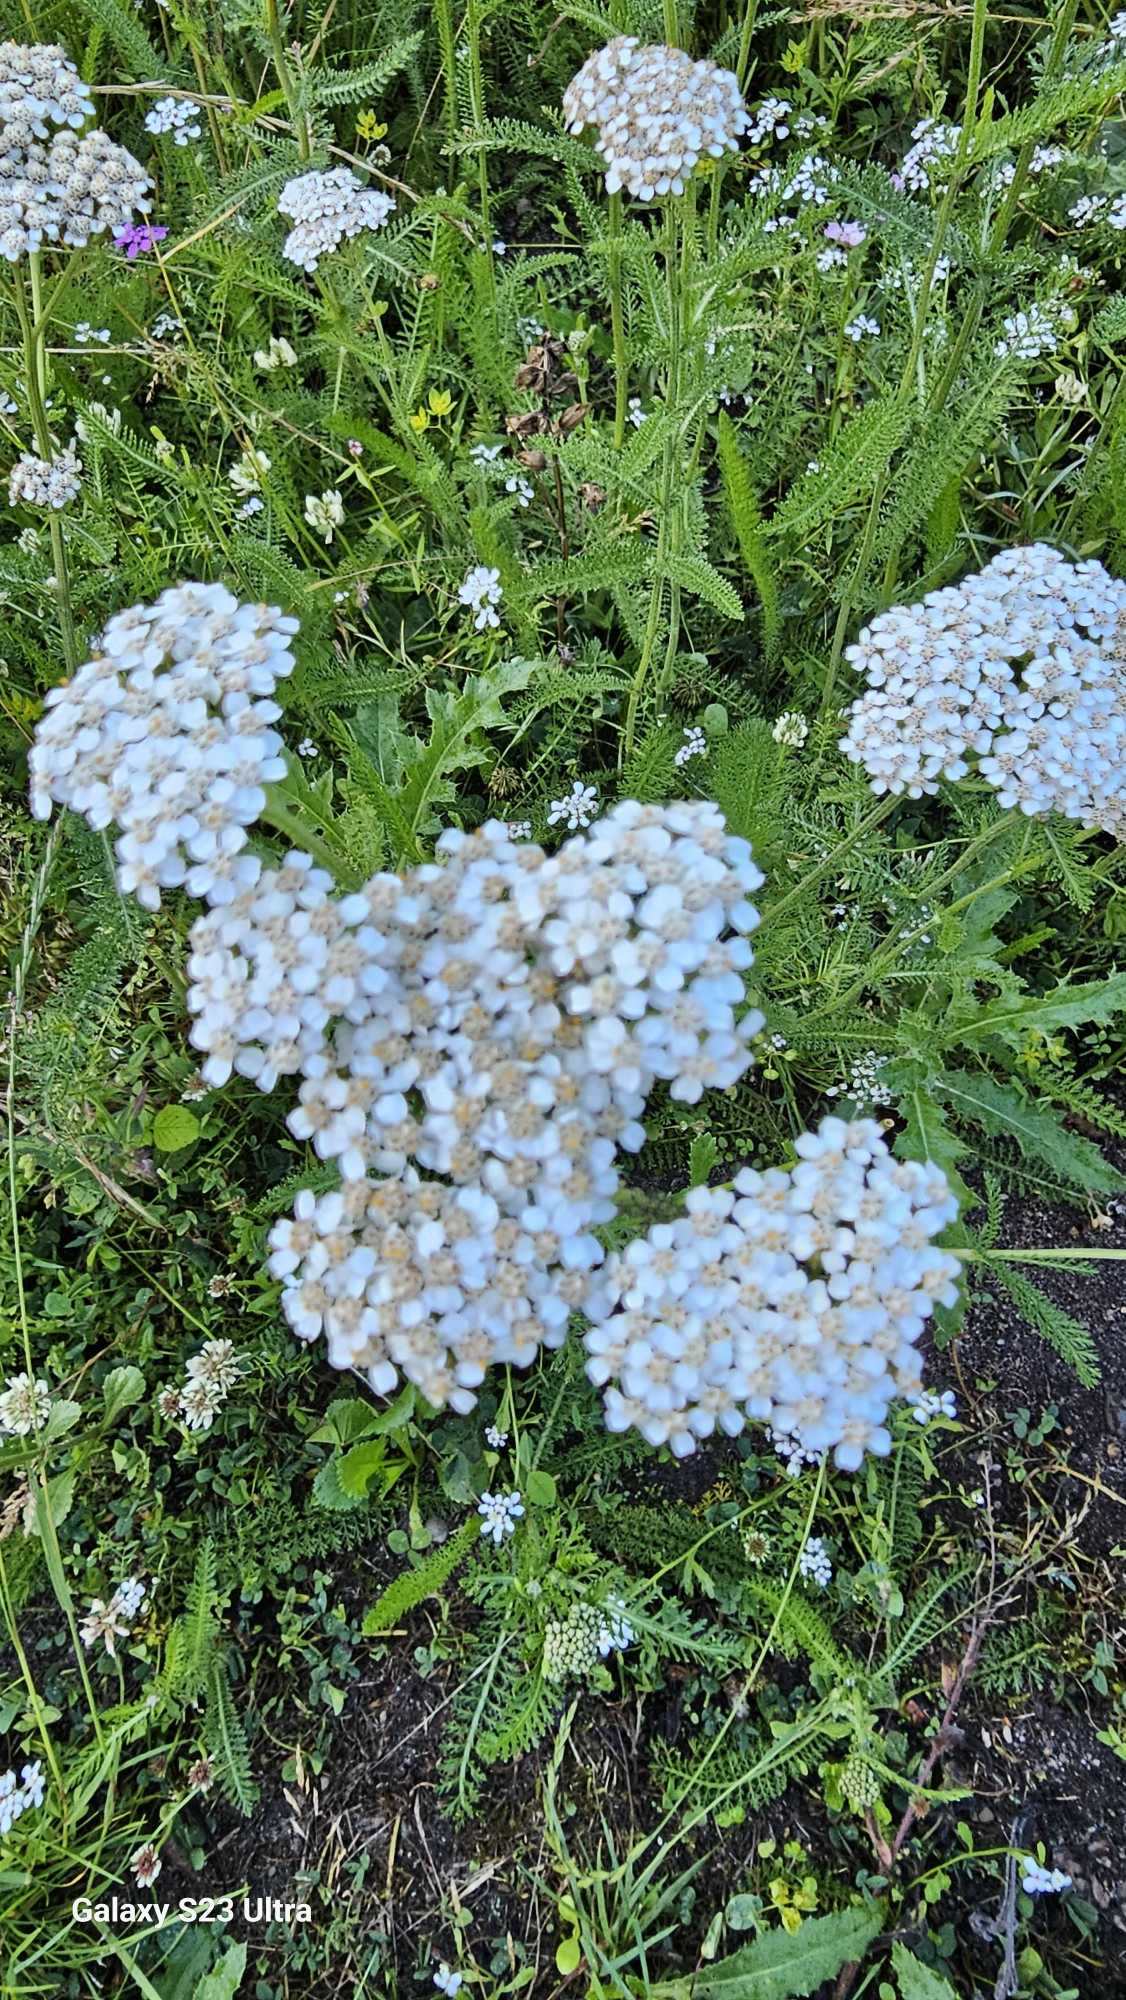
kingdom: Plantae
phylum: Tracheophyta
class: Magnoliopsida
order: Asterales
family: Asteraceae
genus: Achillea
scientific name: Achillea millefolium
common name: Almindelig røllike
